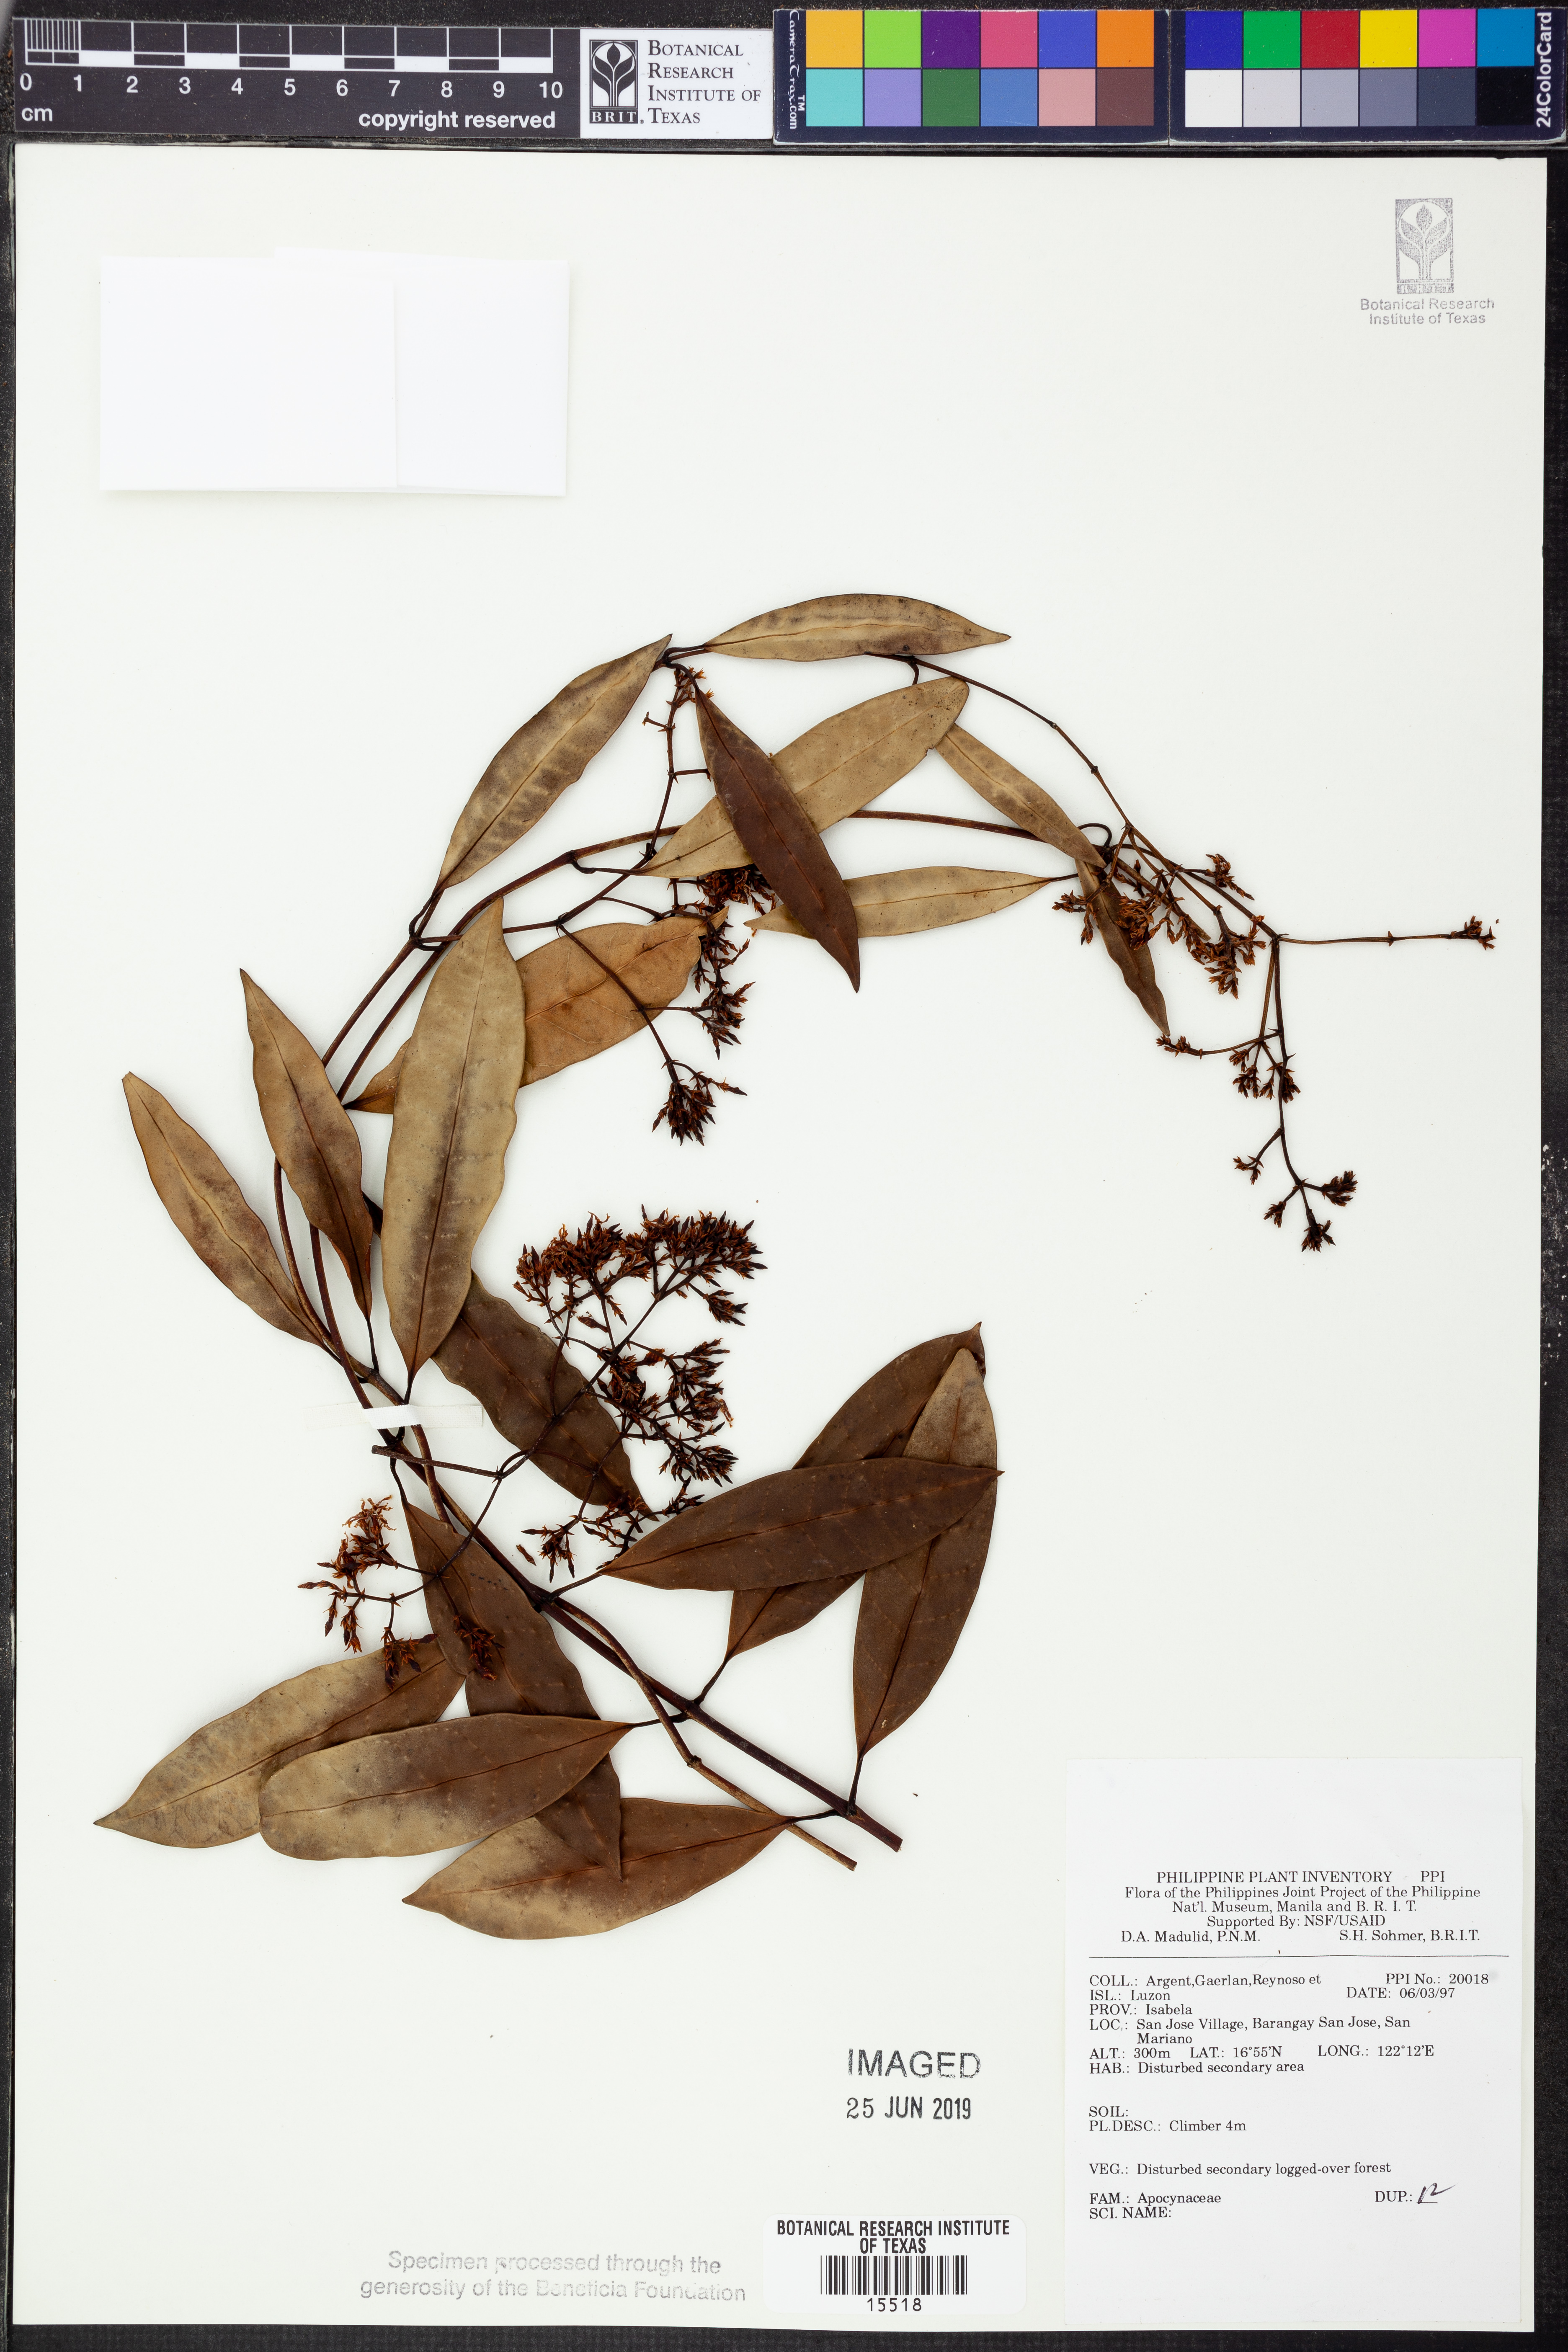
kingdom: Plantae
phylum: Tracheophyta
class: Magnoliopsida
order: Gentianales
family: Apocynaceae
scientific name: Apocynaceae
